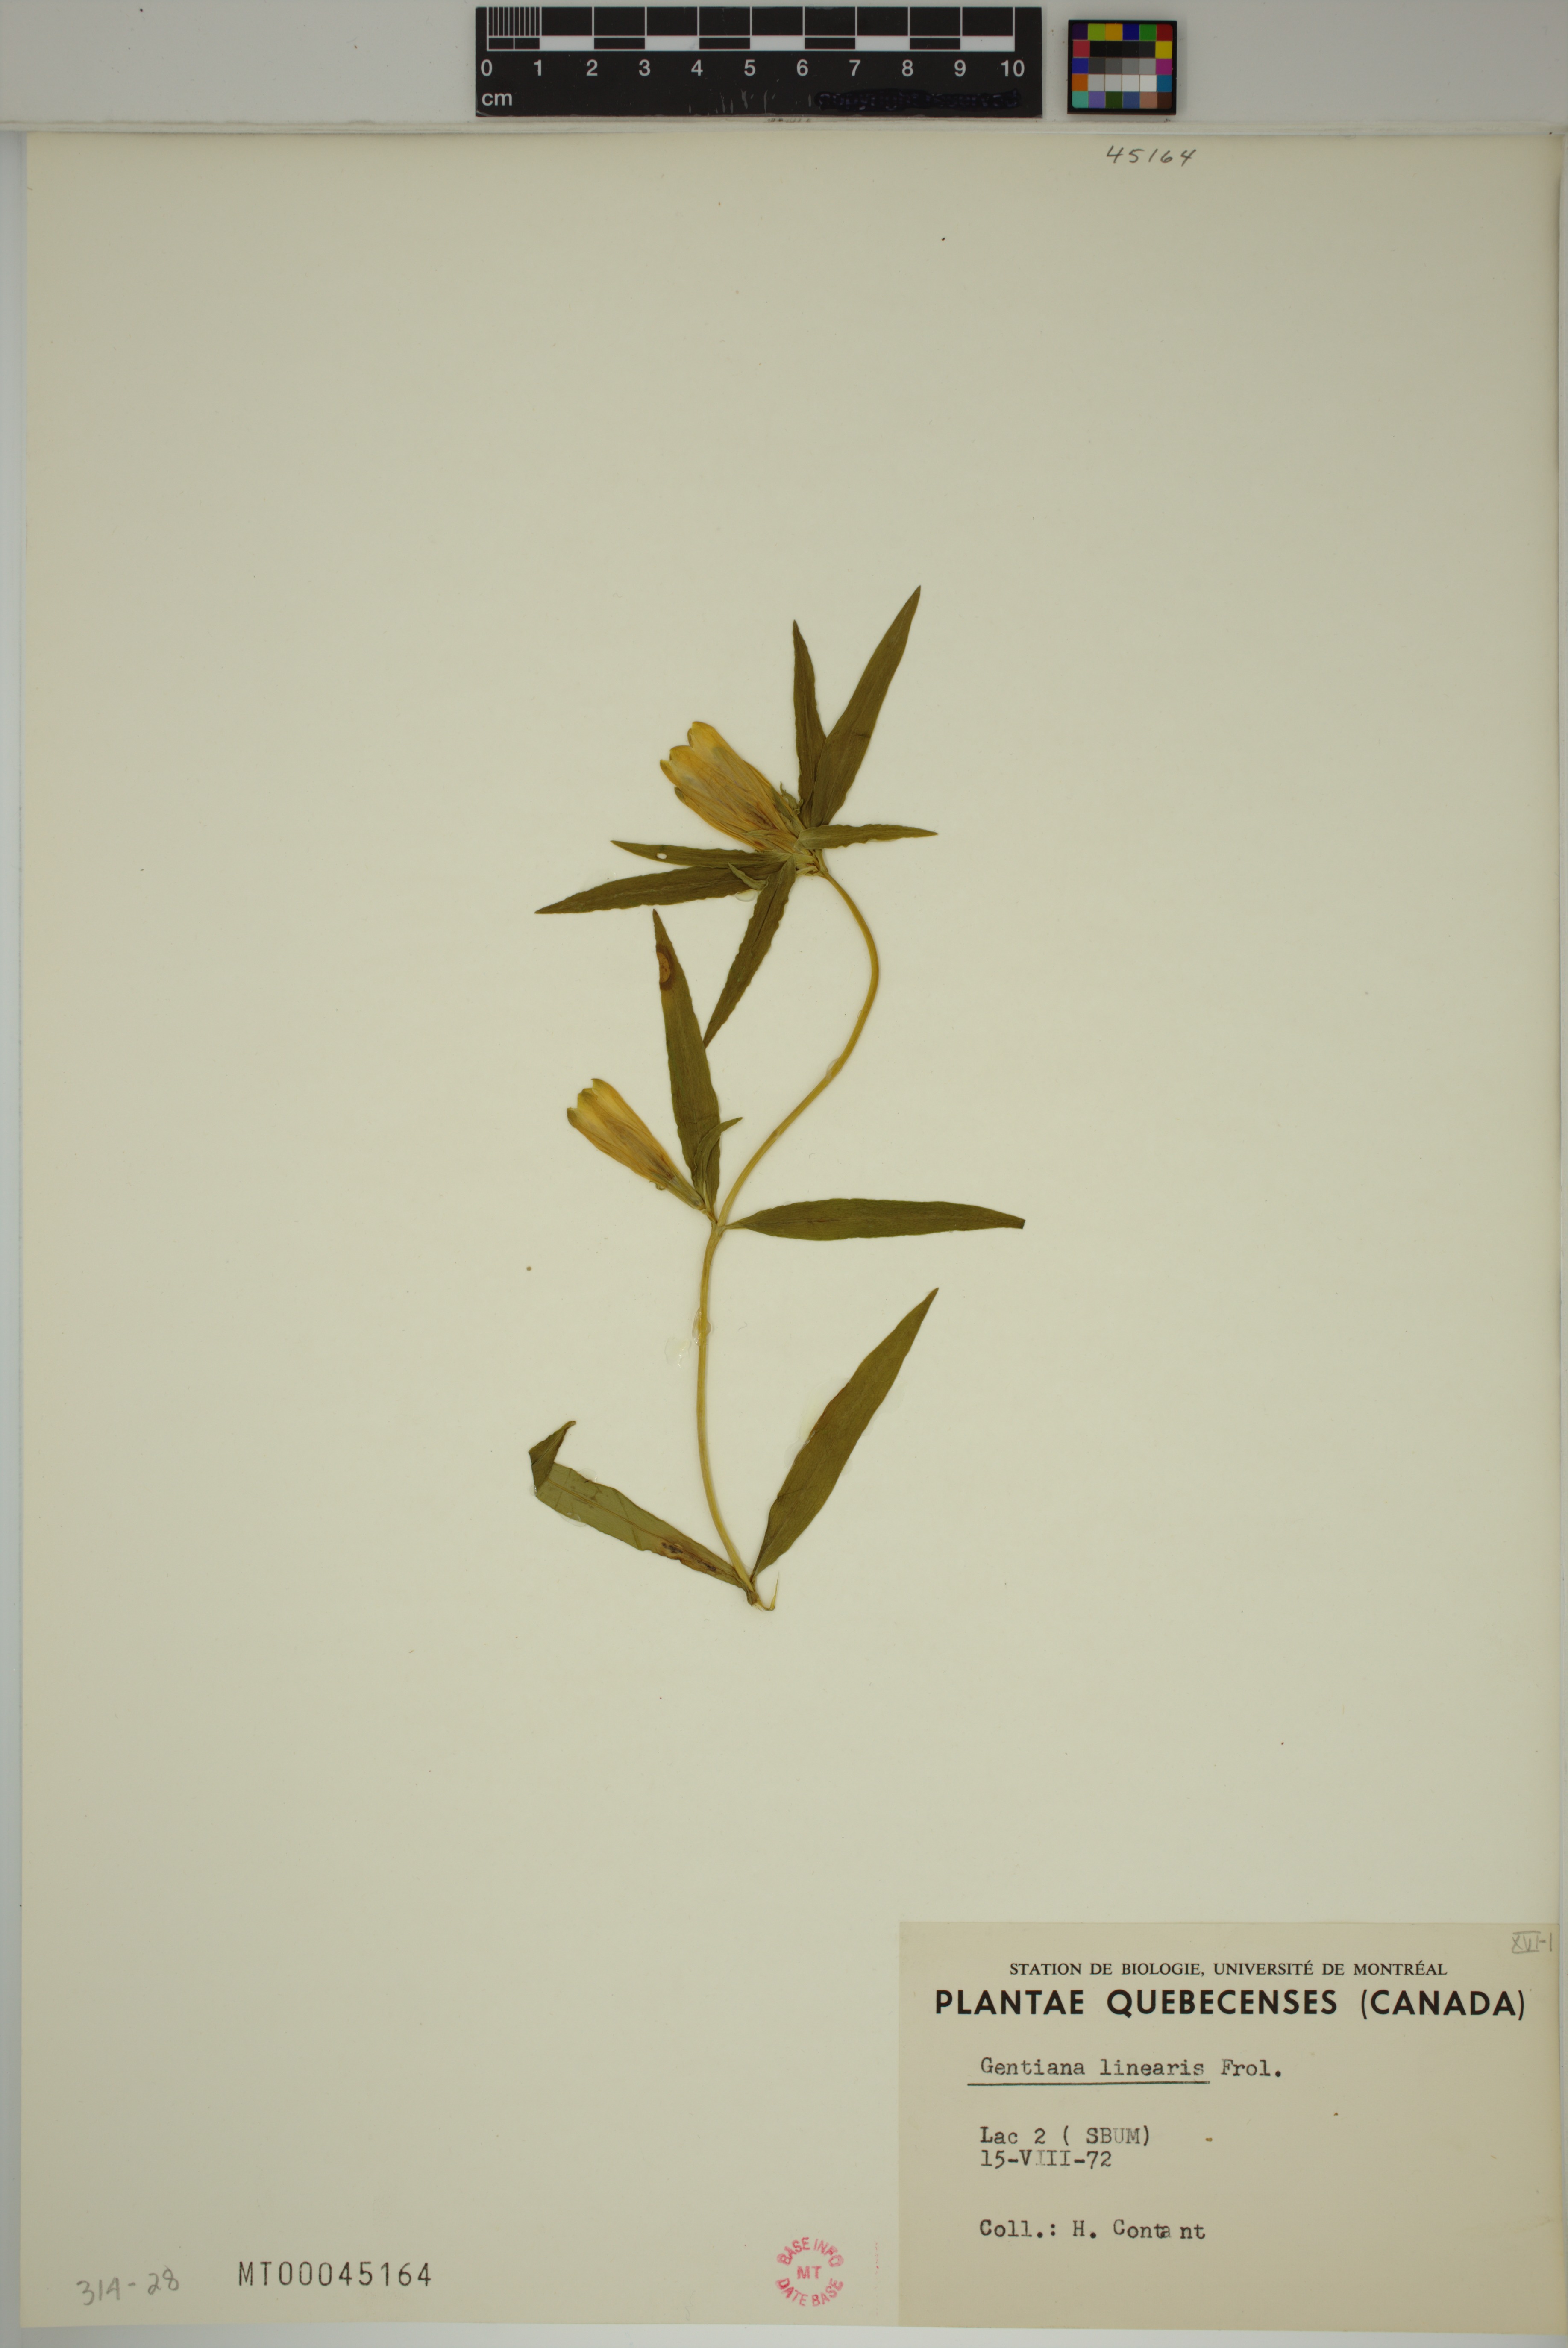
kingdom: Plantae
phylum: Tracheophyta
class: Magnoliopsida
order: Gentianales
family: Gentianaceae
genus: Gentiana
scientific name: Gentiana linearis
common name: Bastard gentian
